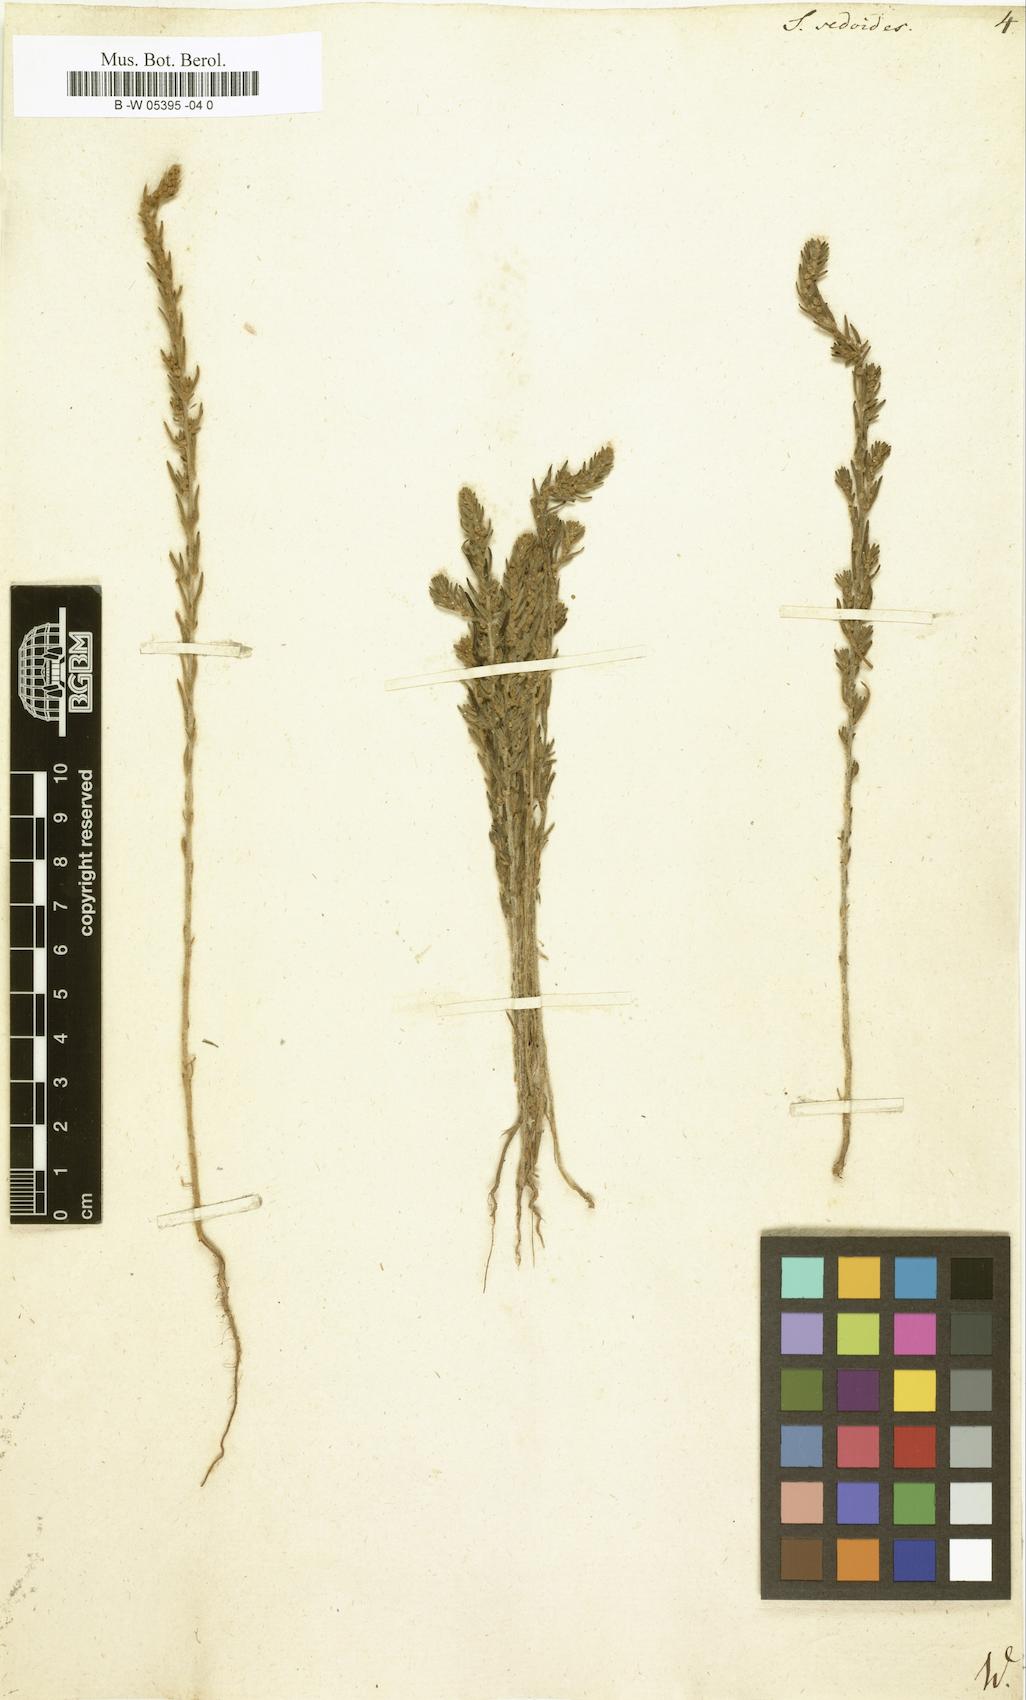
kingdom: Plantae
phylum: Tracheophyta
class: Magnoliopsida
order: Caryophyllales
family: Amaranthaceae
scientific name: Amaranthaceae
